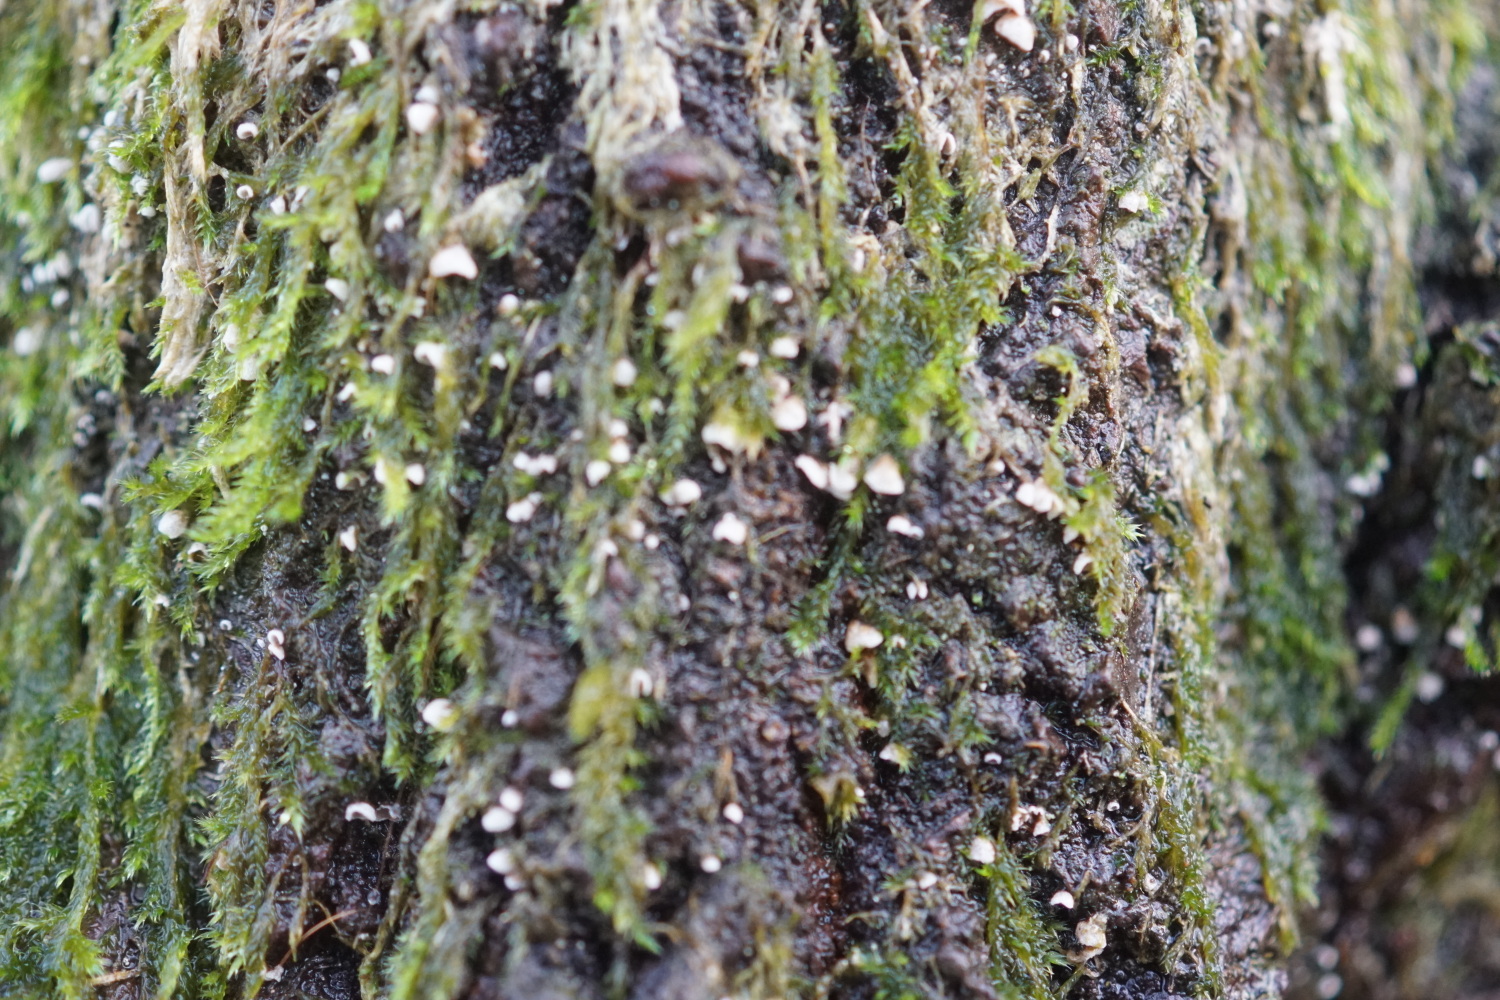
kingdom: Fungi
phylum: Basidiomycota
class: Agaricomycetes
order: Agaricales
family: Chromocyphellaceae
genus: Chromocyphella
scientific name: Chromocyphella muscicola
